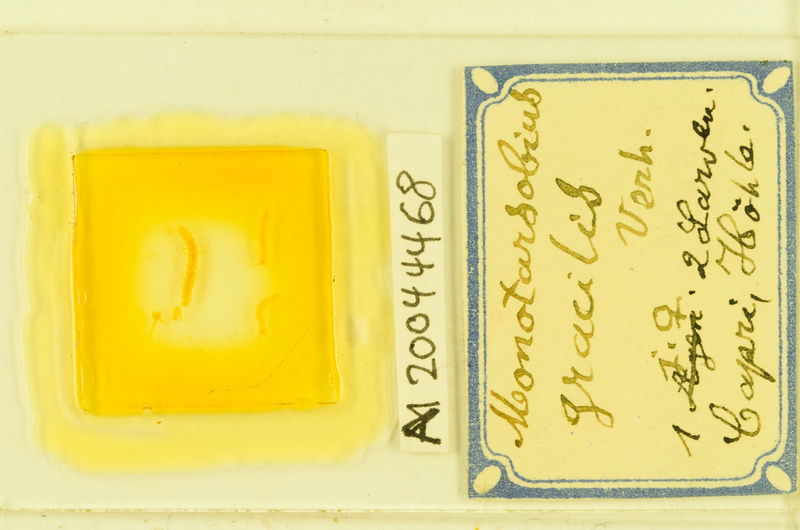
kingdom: Animalia
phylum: Arthropoda
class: Chilopoda
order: Lithobiomorpha
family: Lithobiidae
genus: Lithobius
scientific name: Lithobius dahlii
